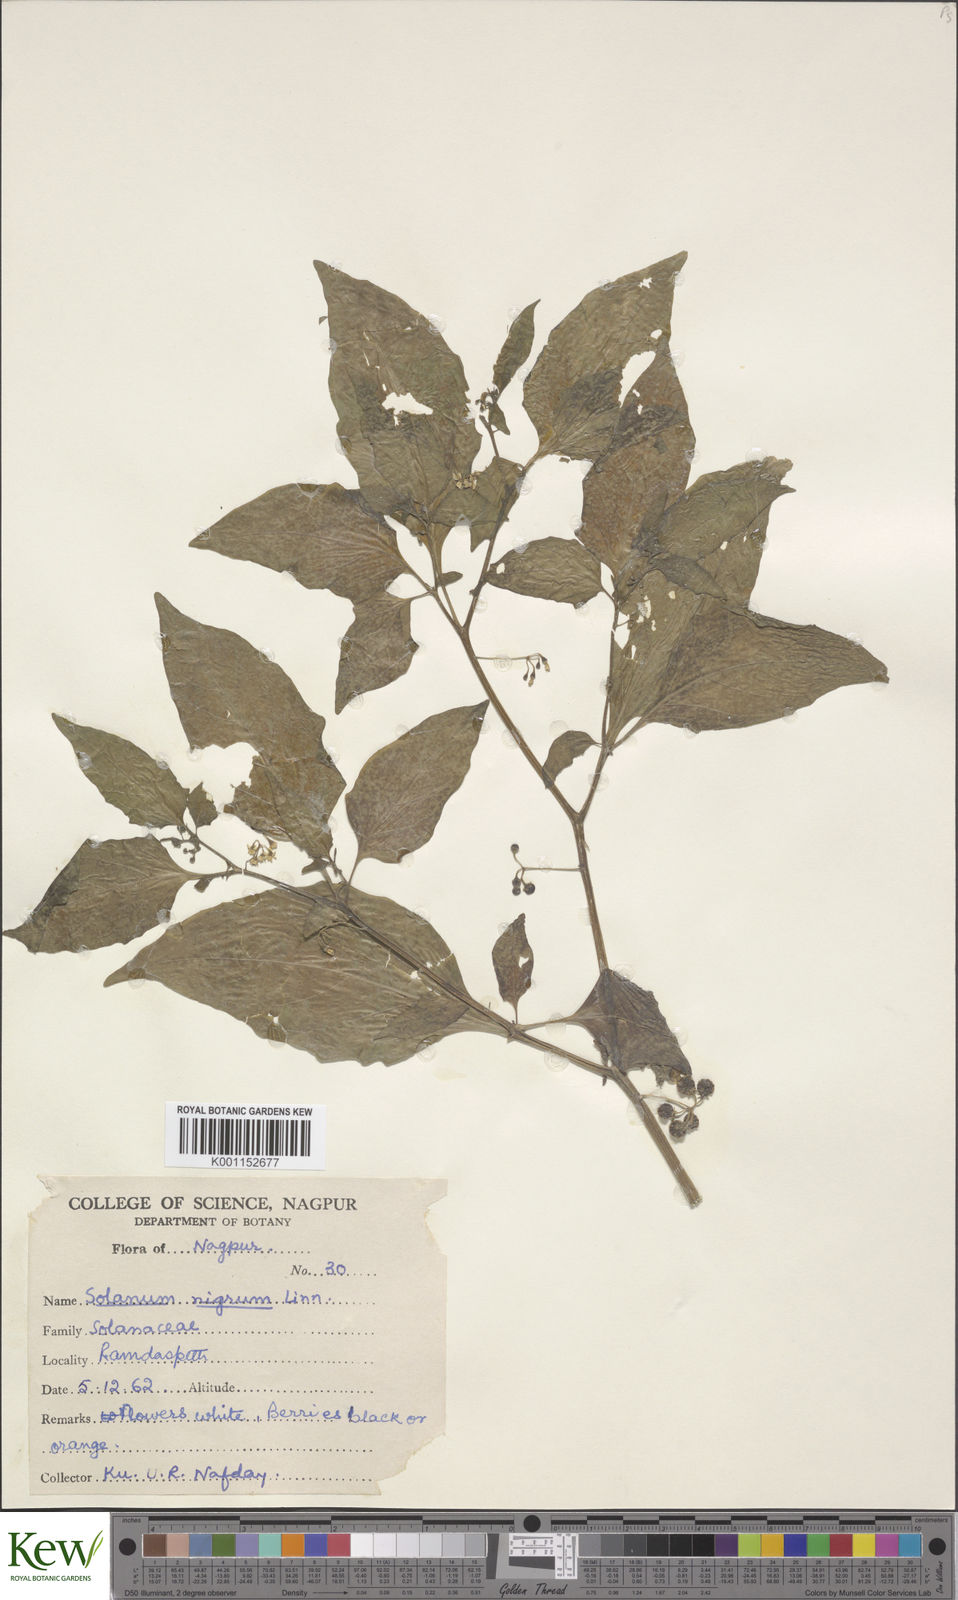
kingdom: Plantae
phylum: Tracheophyta
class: Magnoliopsida
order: Solanales
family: Solanaceae
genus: Solanum
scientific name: Solanum nigrum
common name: Black nightshade
